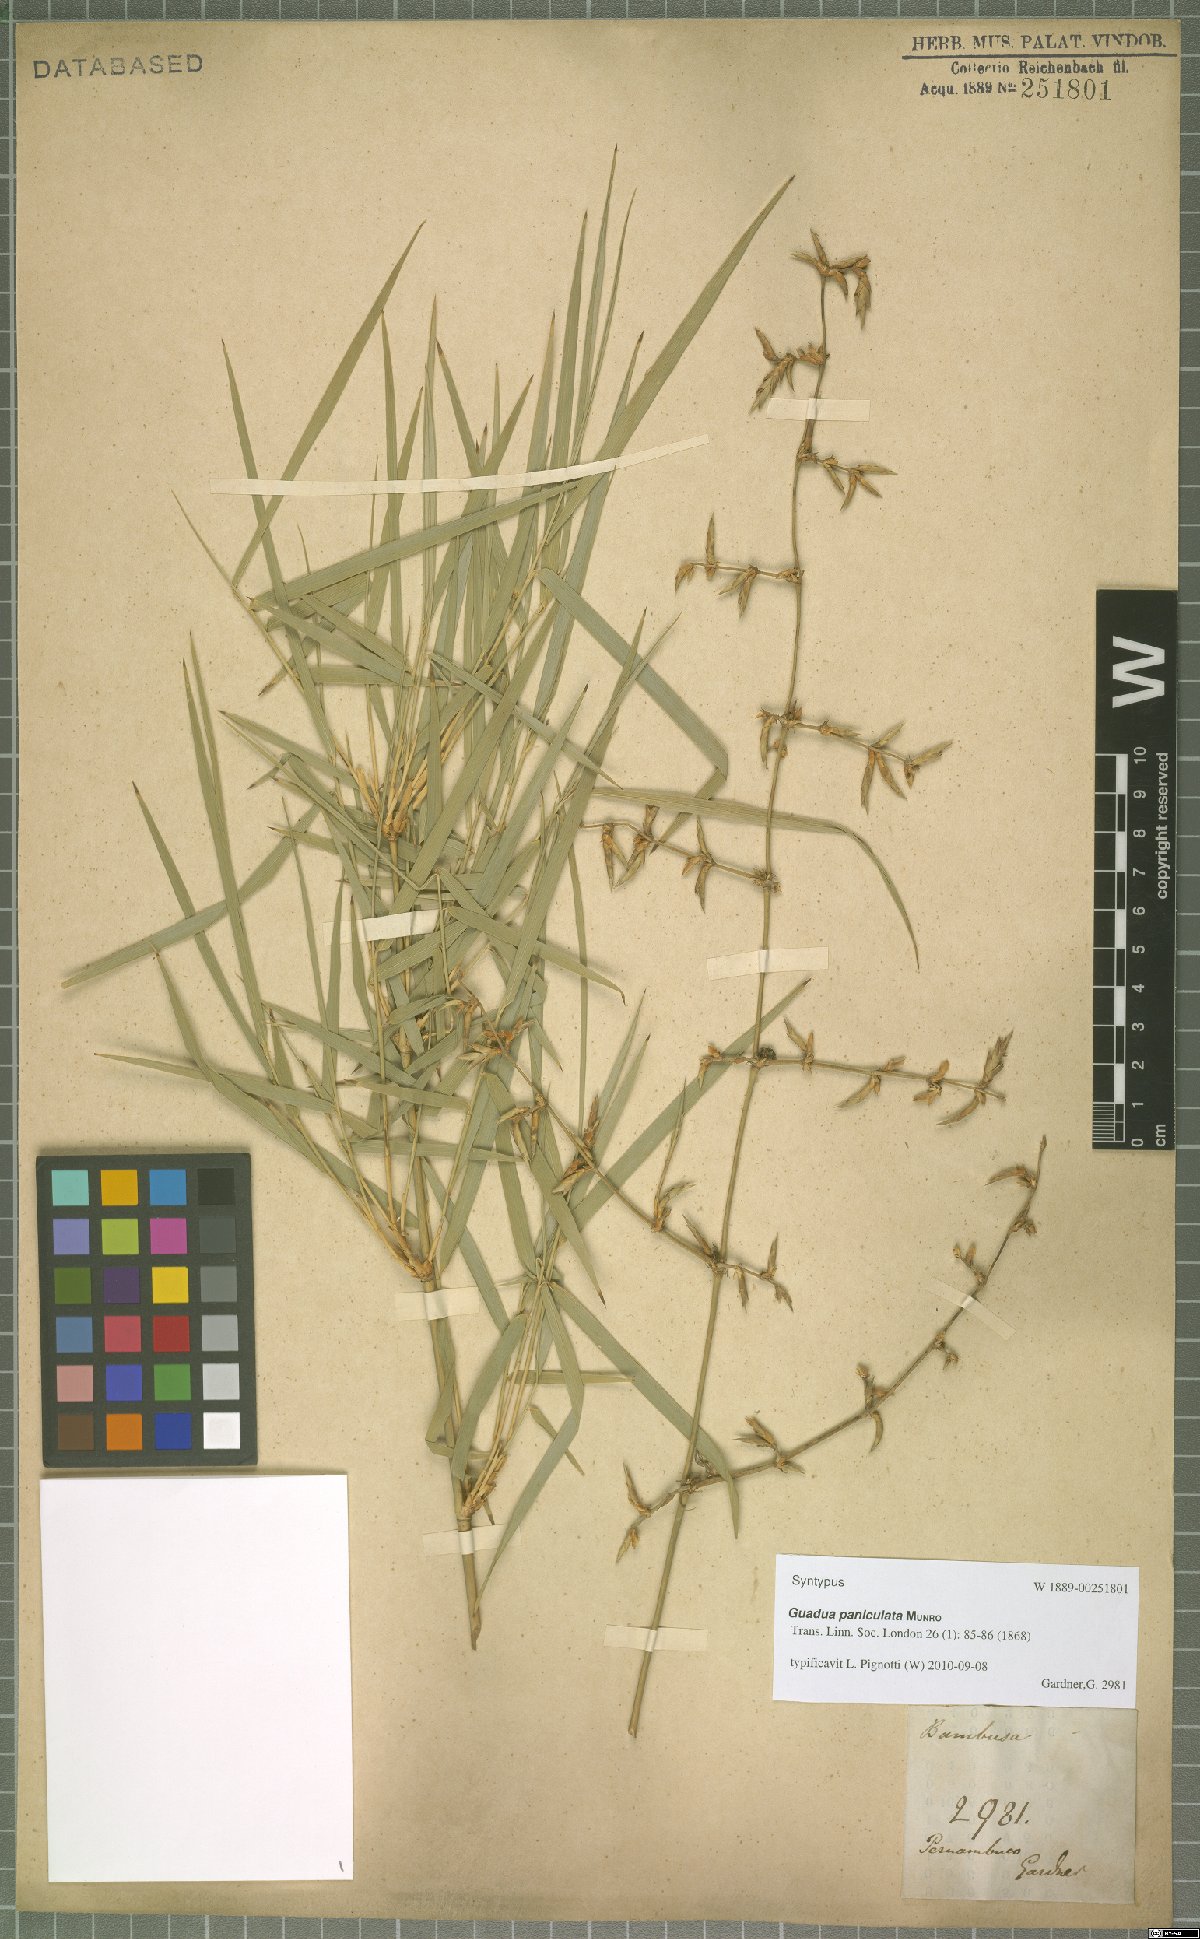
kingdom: Plantae
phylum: Tracheophyta
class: Liliopsida
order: Poales
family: Poaceae
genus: Guadua
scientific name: Guadua paniculata
